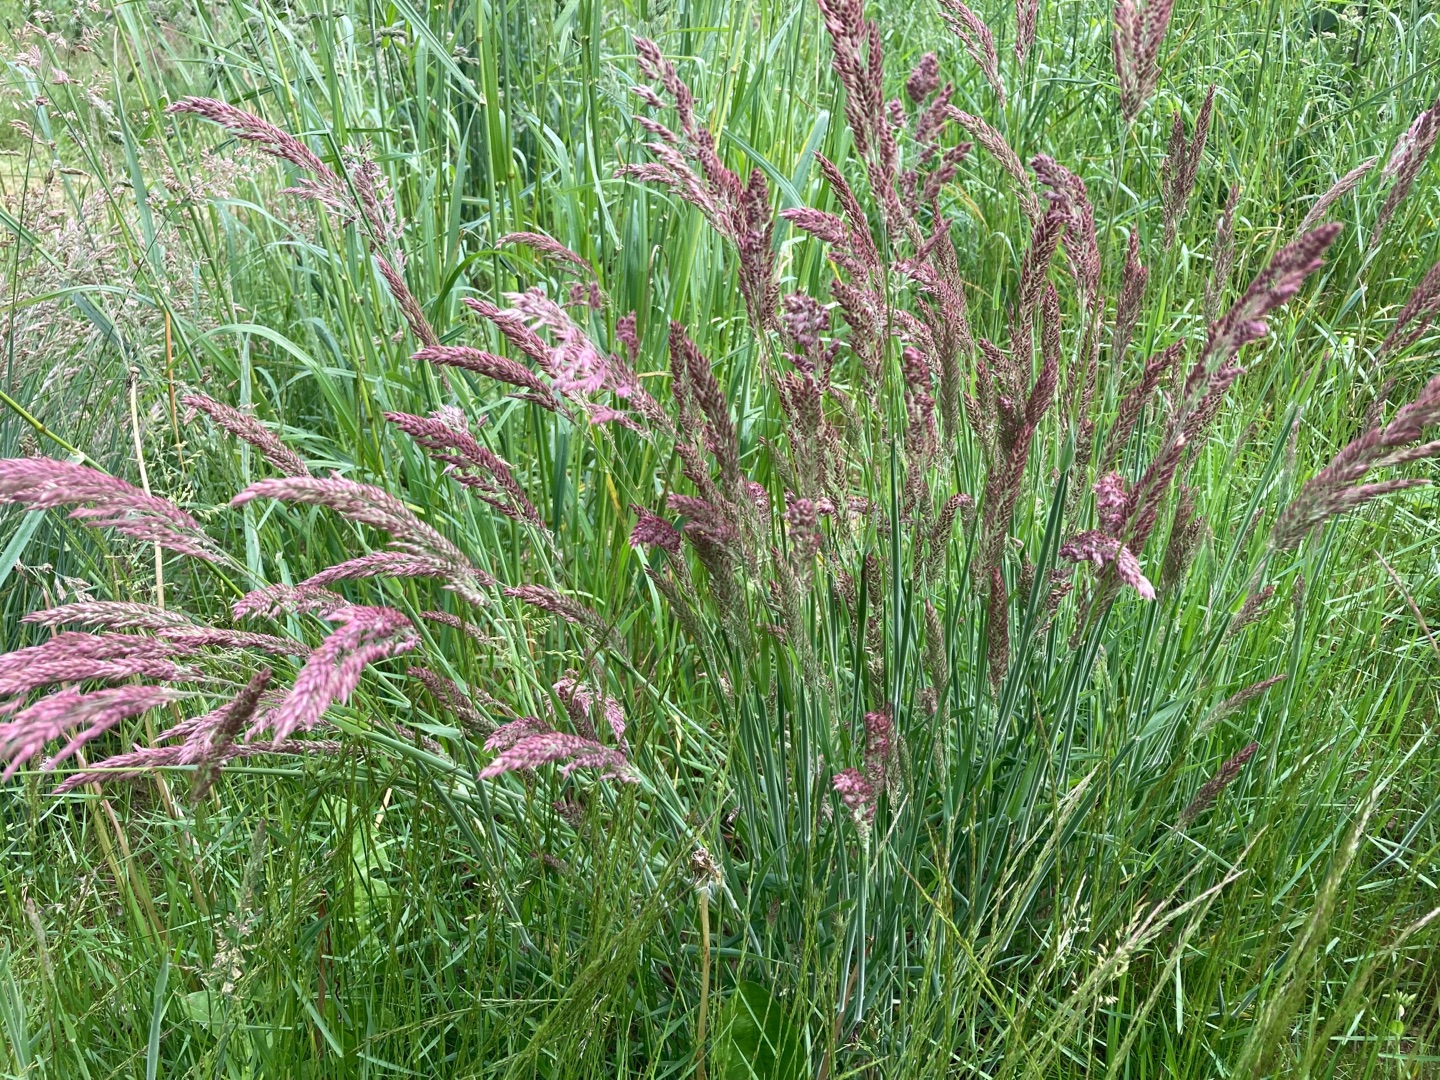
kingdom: Plantae
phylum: Tracheophyta
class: Liliopsida
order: Poales
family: Poaceae
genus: Holcus
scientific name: Holcus lanatus
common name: Fløjlsgræs
